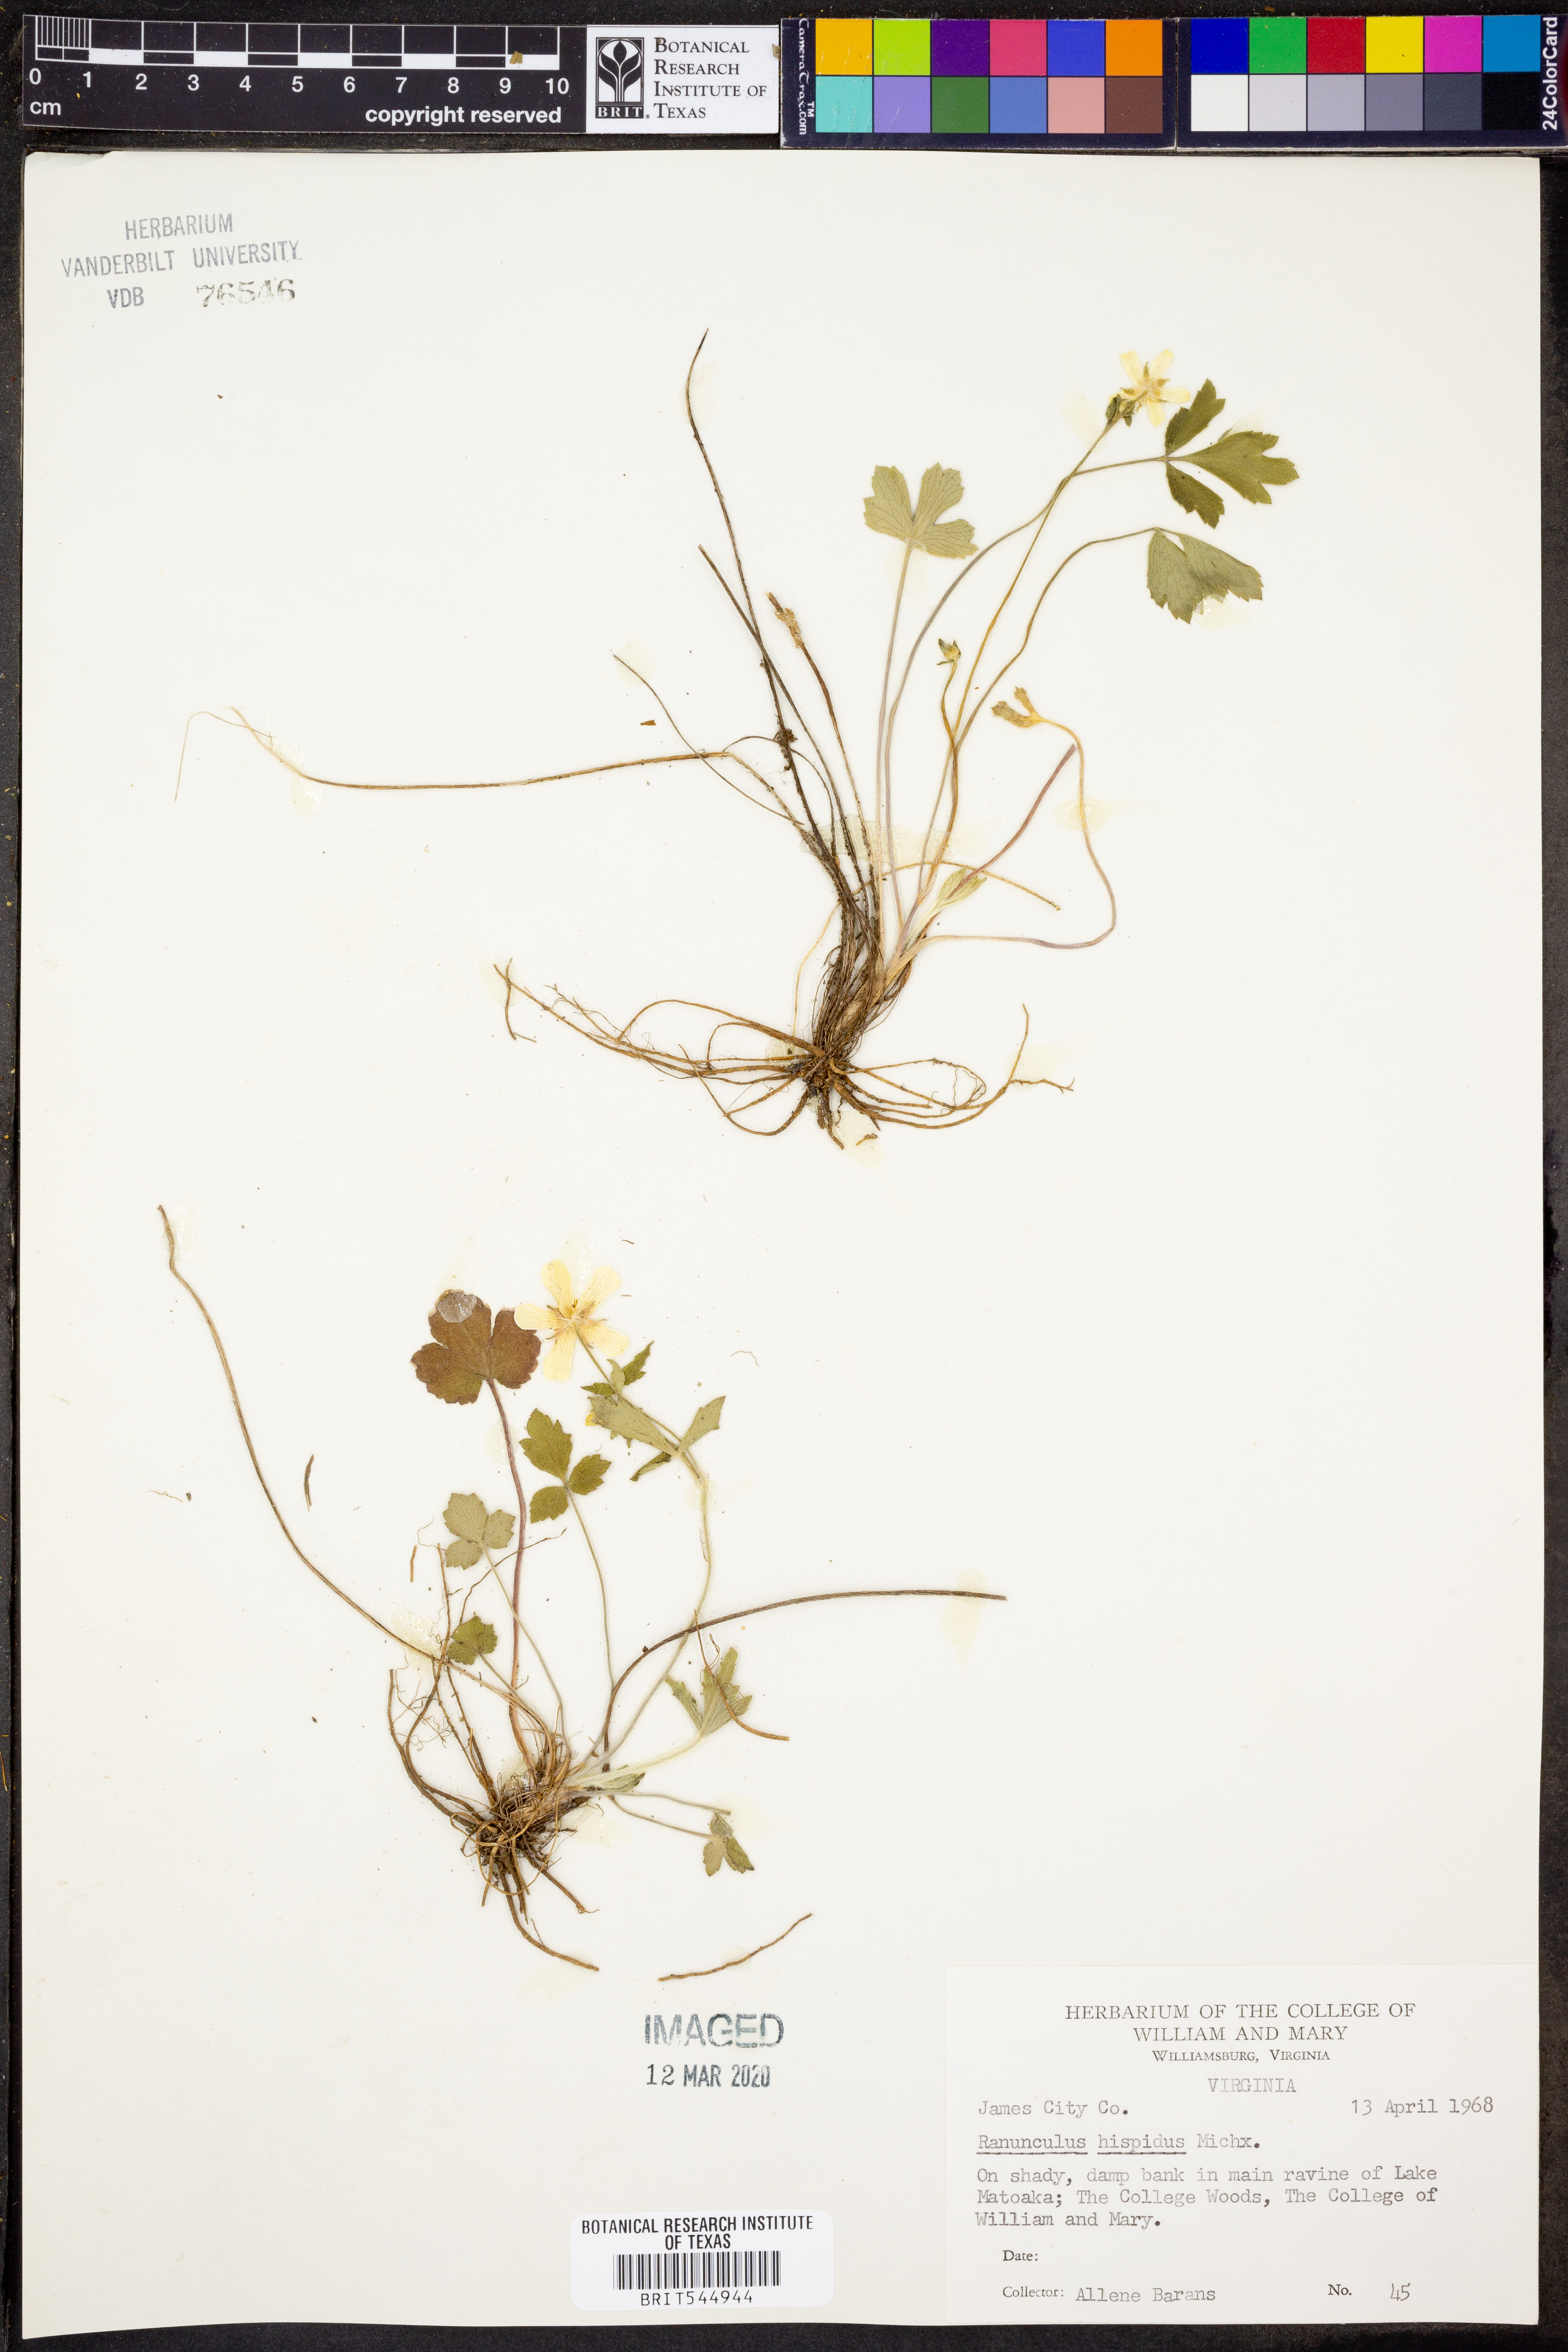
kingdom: Plantae
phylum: Tracheophyta
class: Magnoliopsida
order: Ranunculales
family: Ranunculaceae
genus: Ranunculus
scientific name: Ranunculus hispidus
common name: Bristly buttercup
